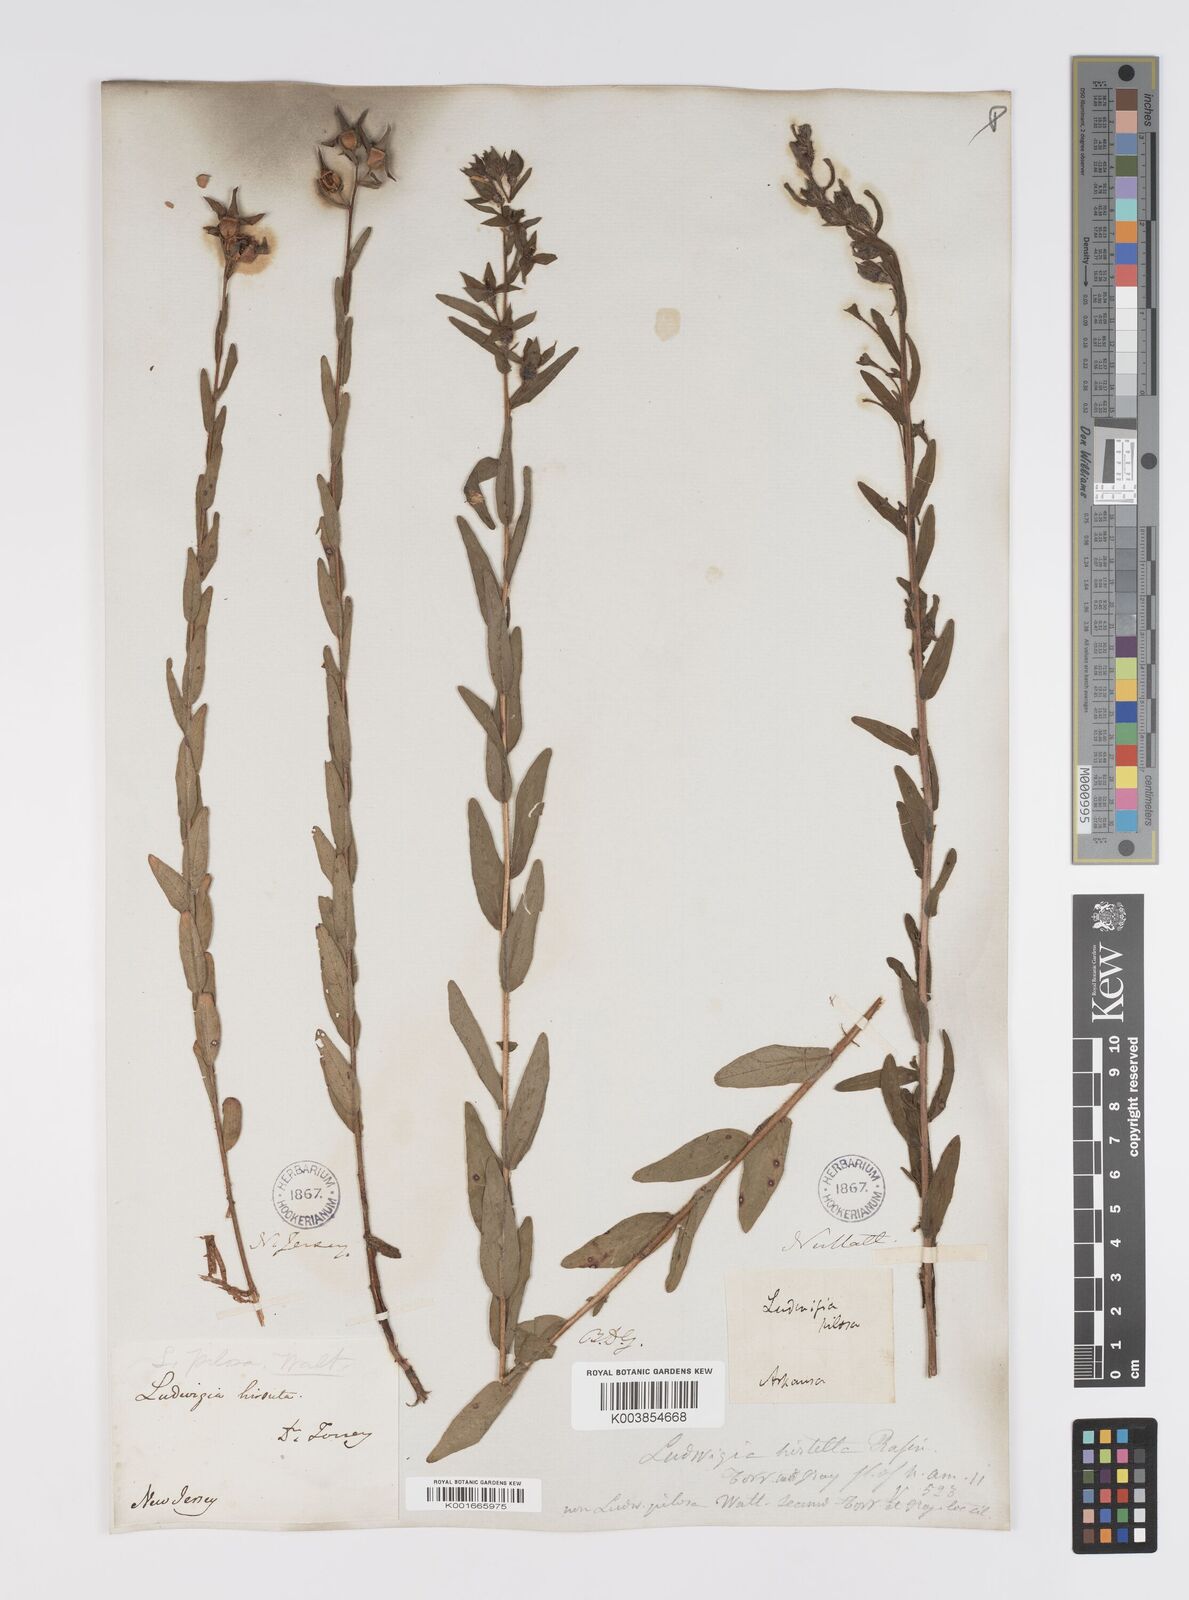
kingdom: Plantae
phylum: Tracheophyta
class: Magnoliopsida
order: Myrtales
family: Onagraceae
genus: Ludwigia
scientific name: Ludwigia hirtella
